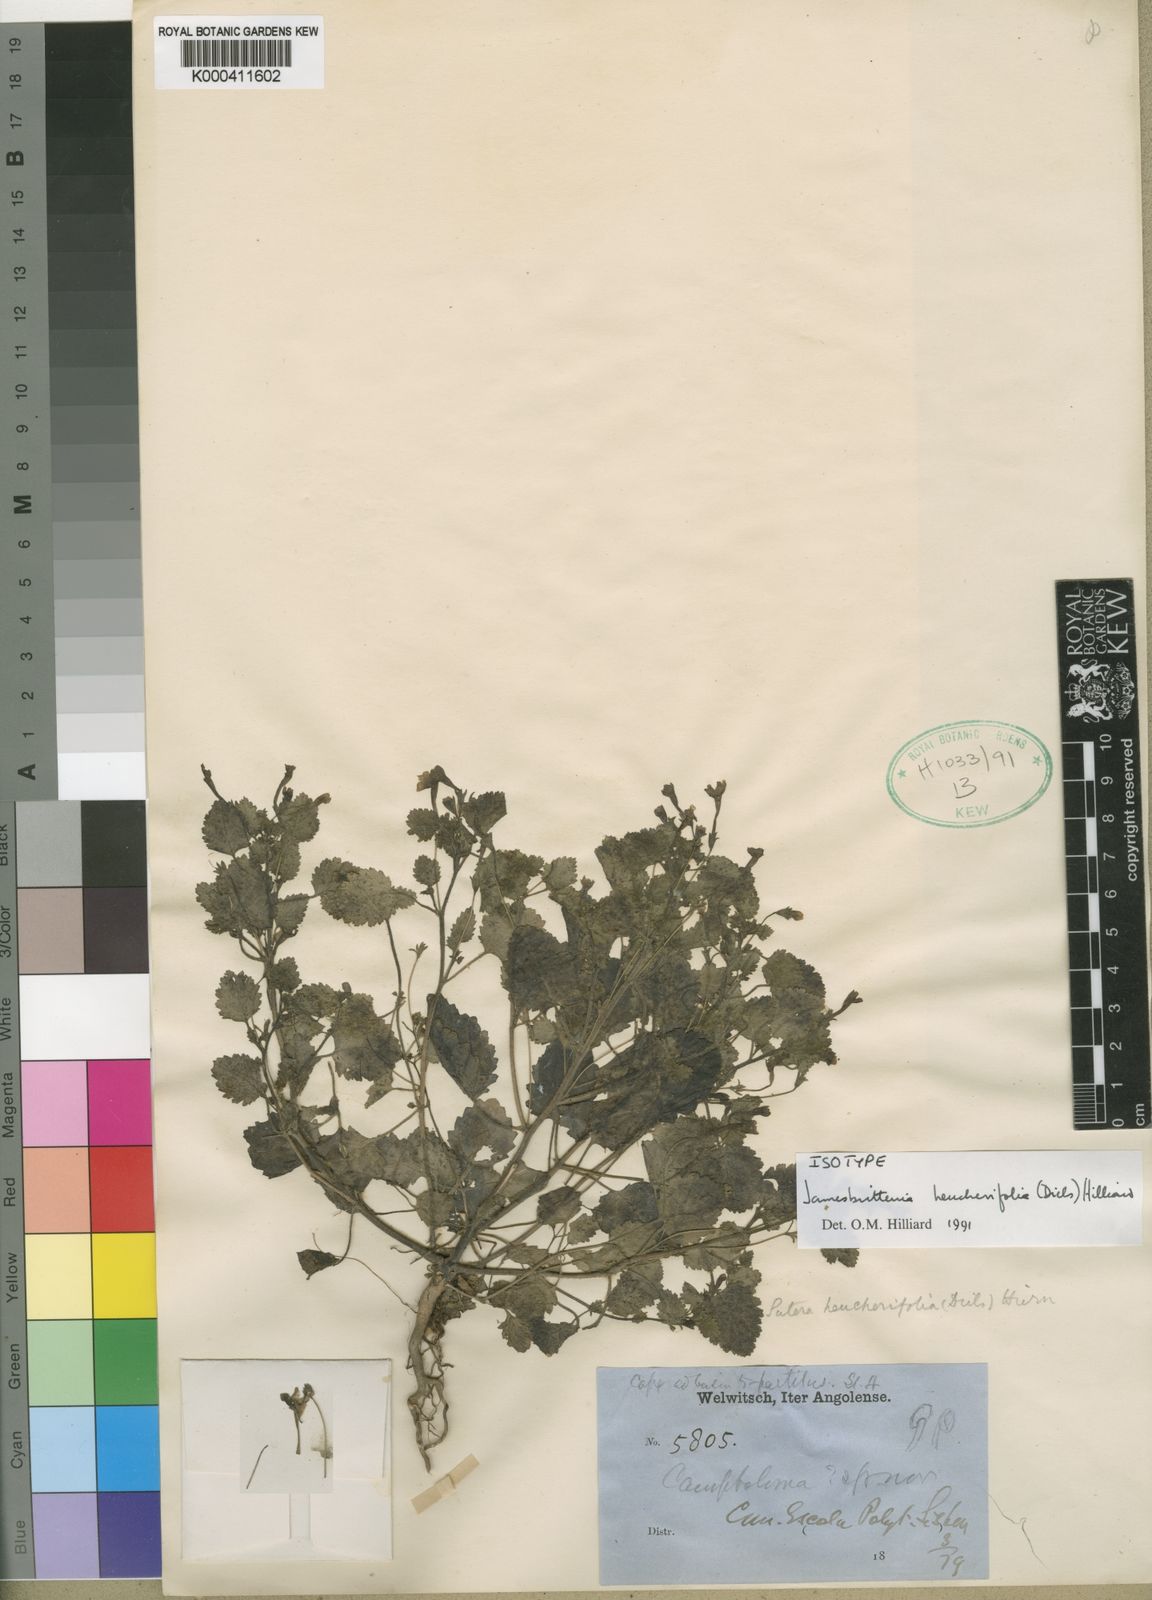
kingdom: Plantae
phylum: Tracheophyta
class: Magnoliopsida
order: Lamiales
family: Scrophulariaceae
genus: Jamesbrittenia
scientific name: Jamesbrittenia heucherifolia
